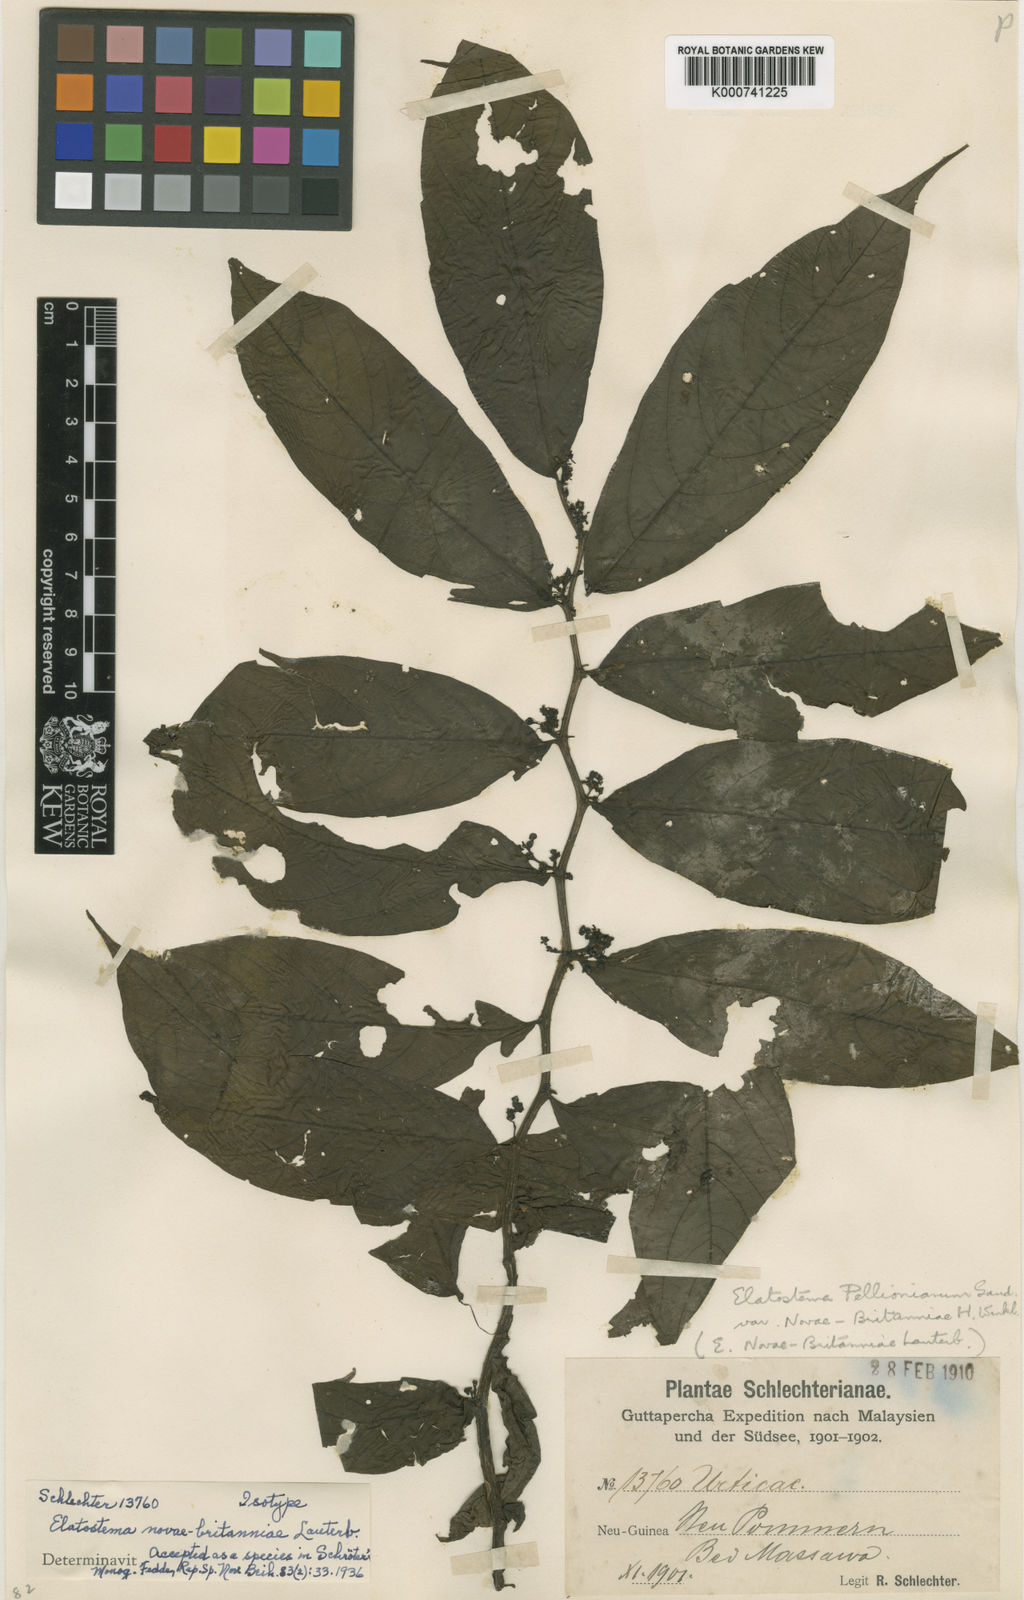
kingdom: Plantae
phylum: Tracheophyta
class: Magnoliopsida
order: Rosales
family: Urticaceae
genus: Elatostema
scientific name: Elatostema novae-britanniae
